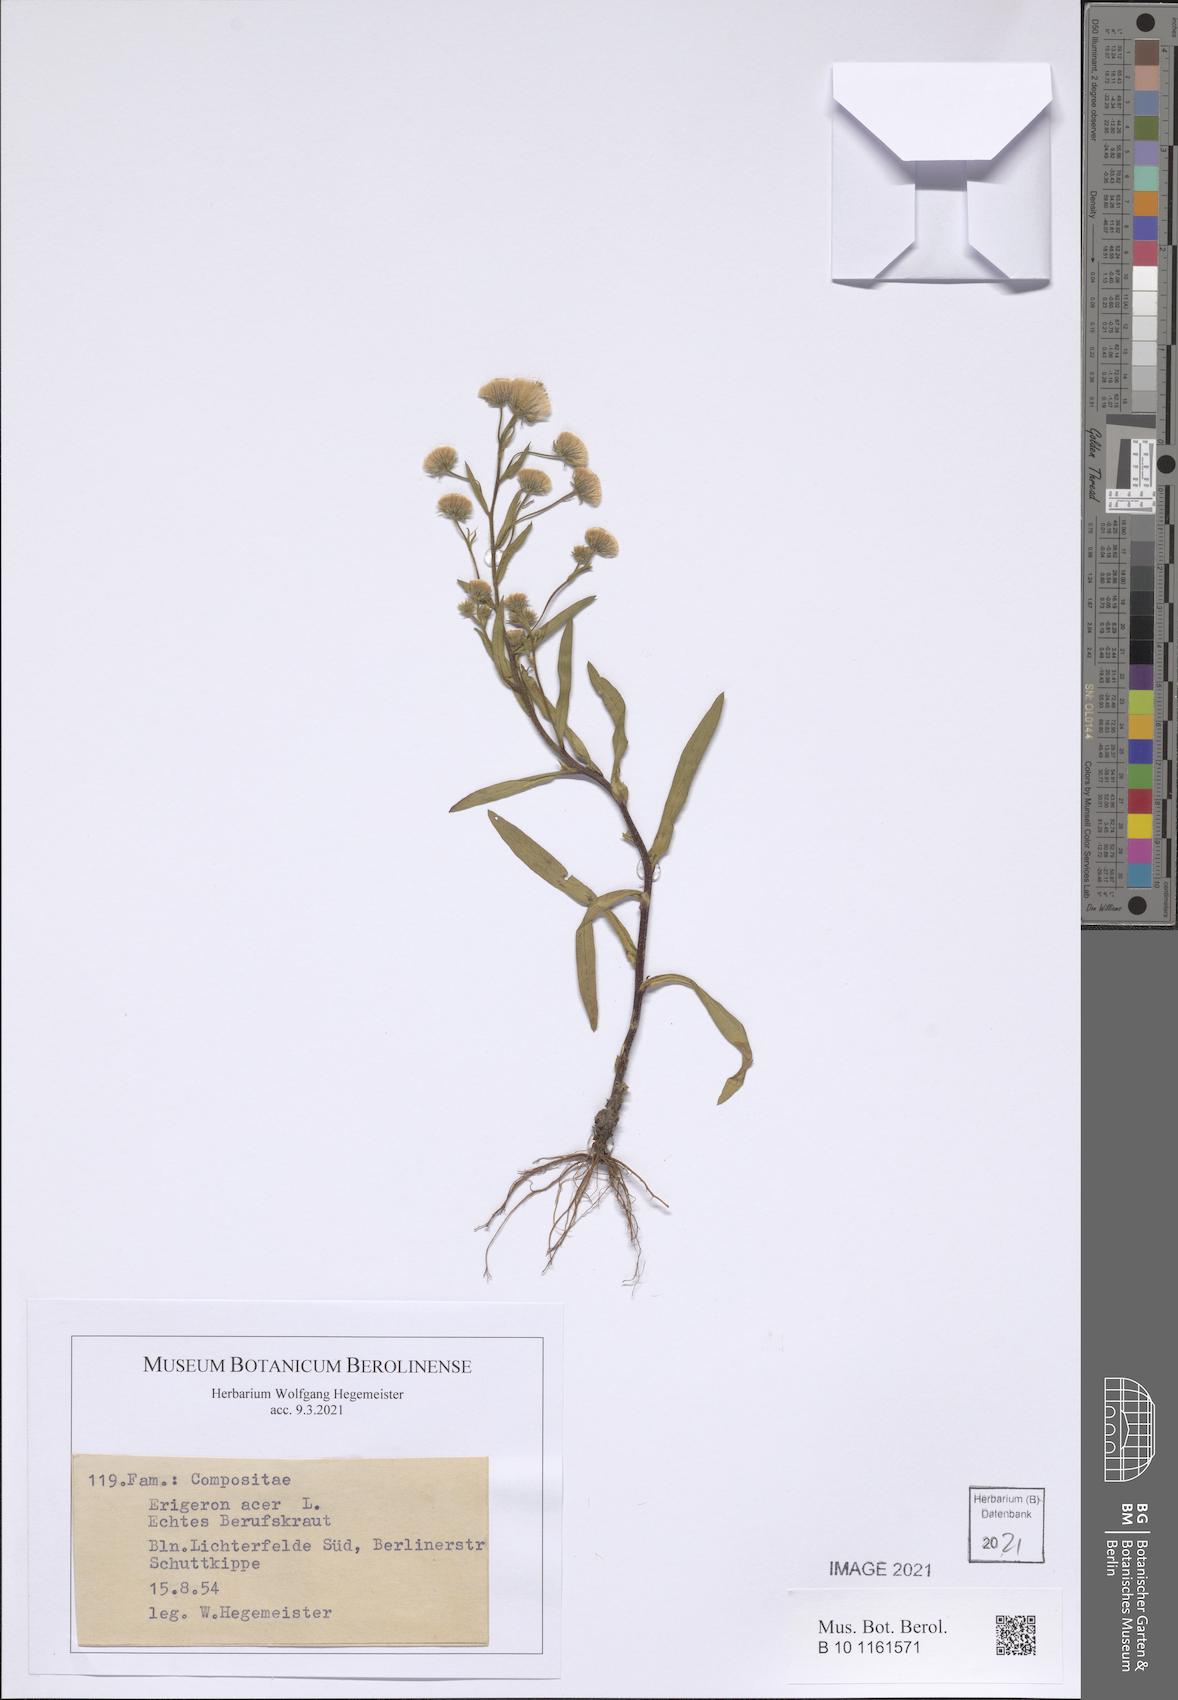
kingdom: Plantae
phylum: Tracheophyta
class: Magnoliopsida
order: Asterales
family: Asteraceae
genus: Erigeron
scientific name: Erigeron acer
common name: Blue fleabane
